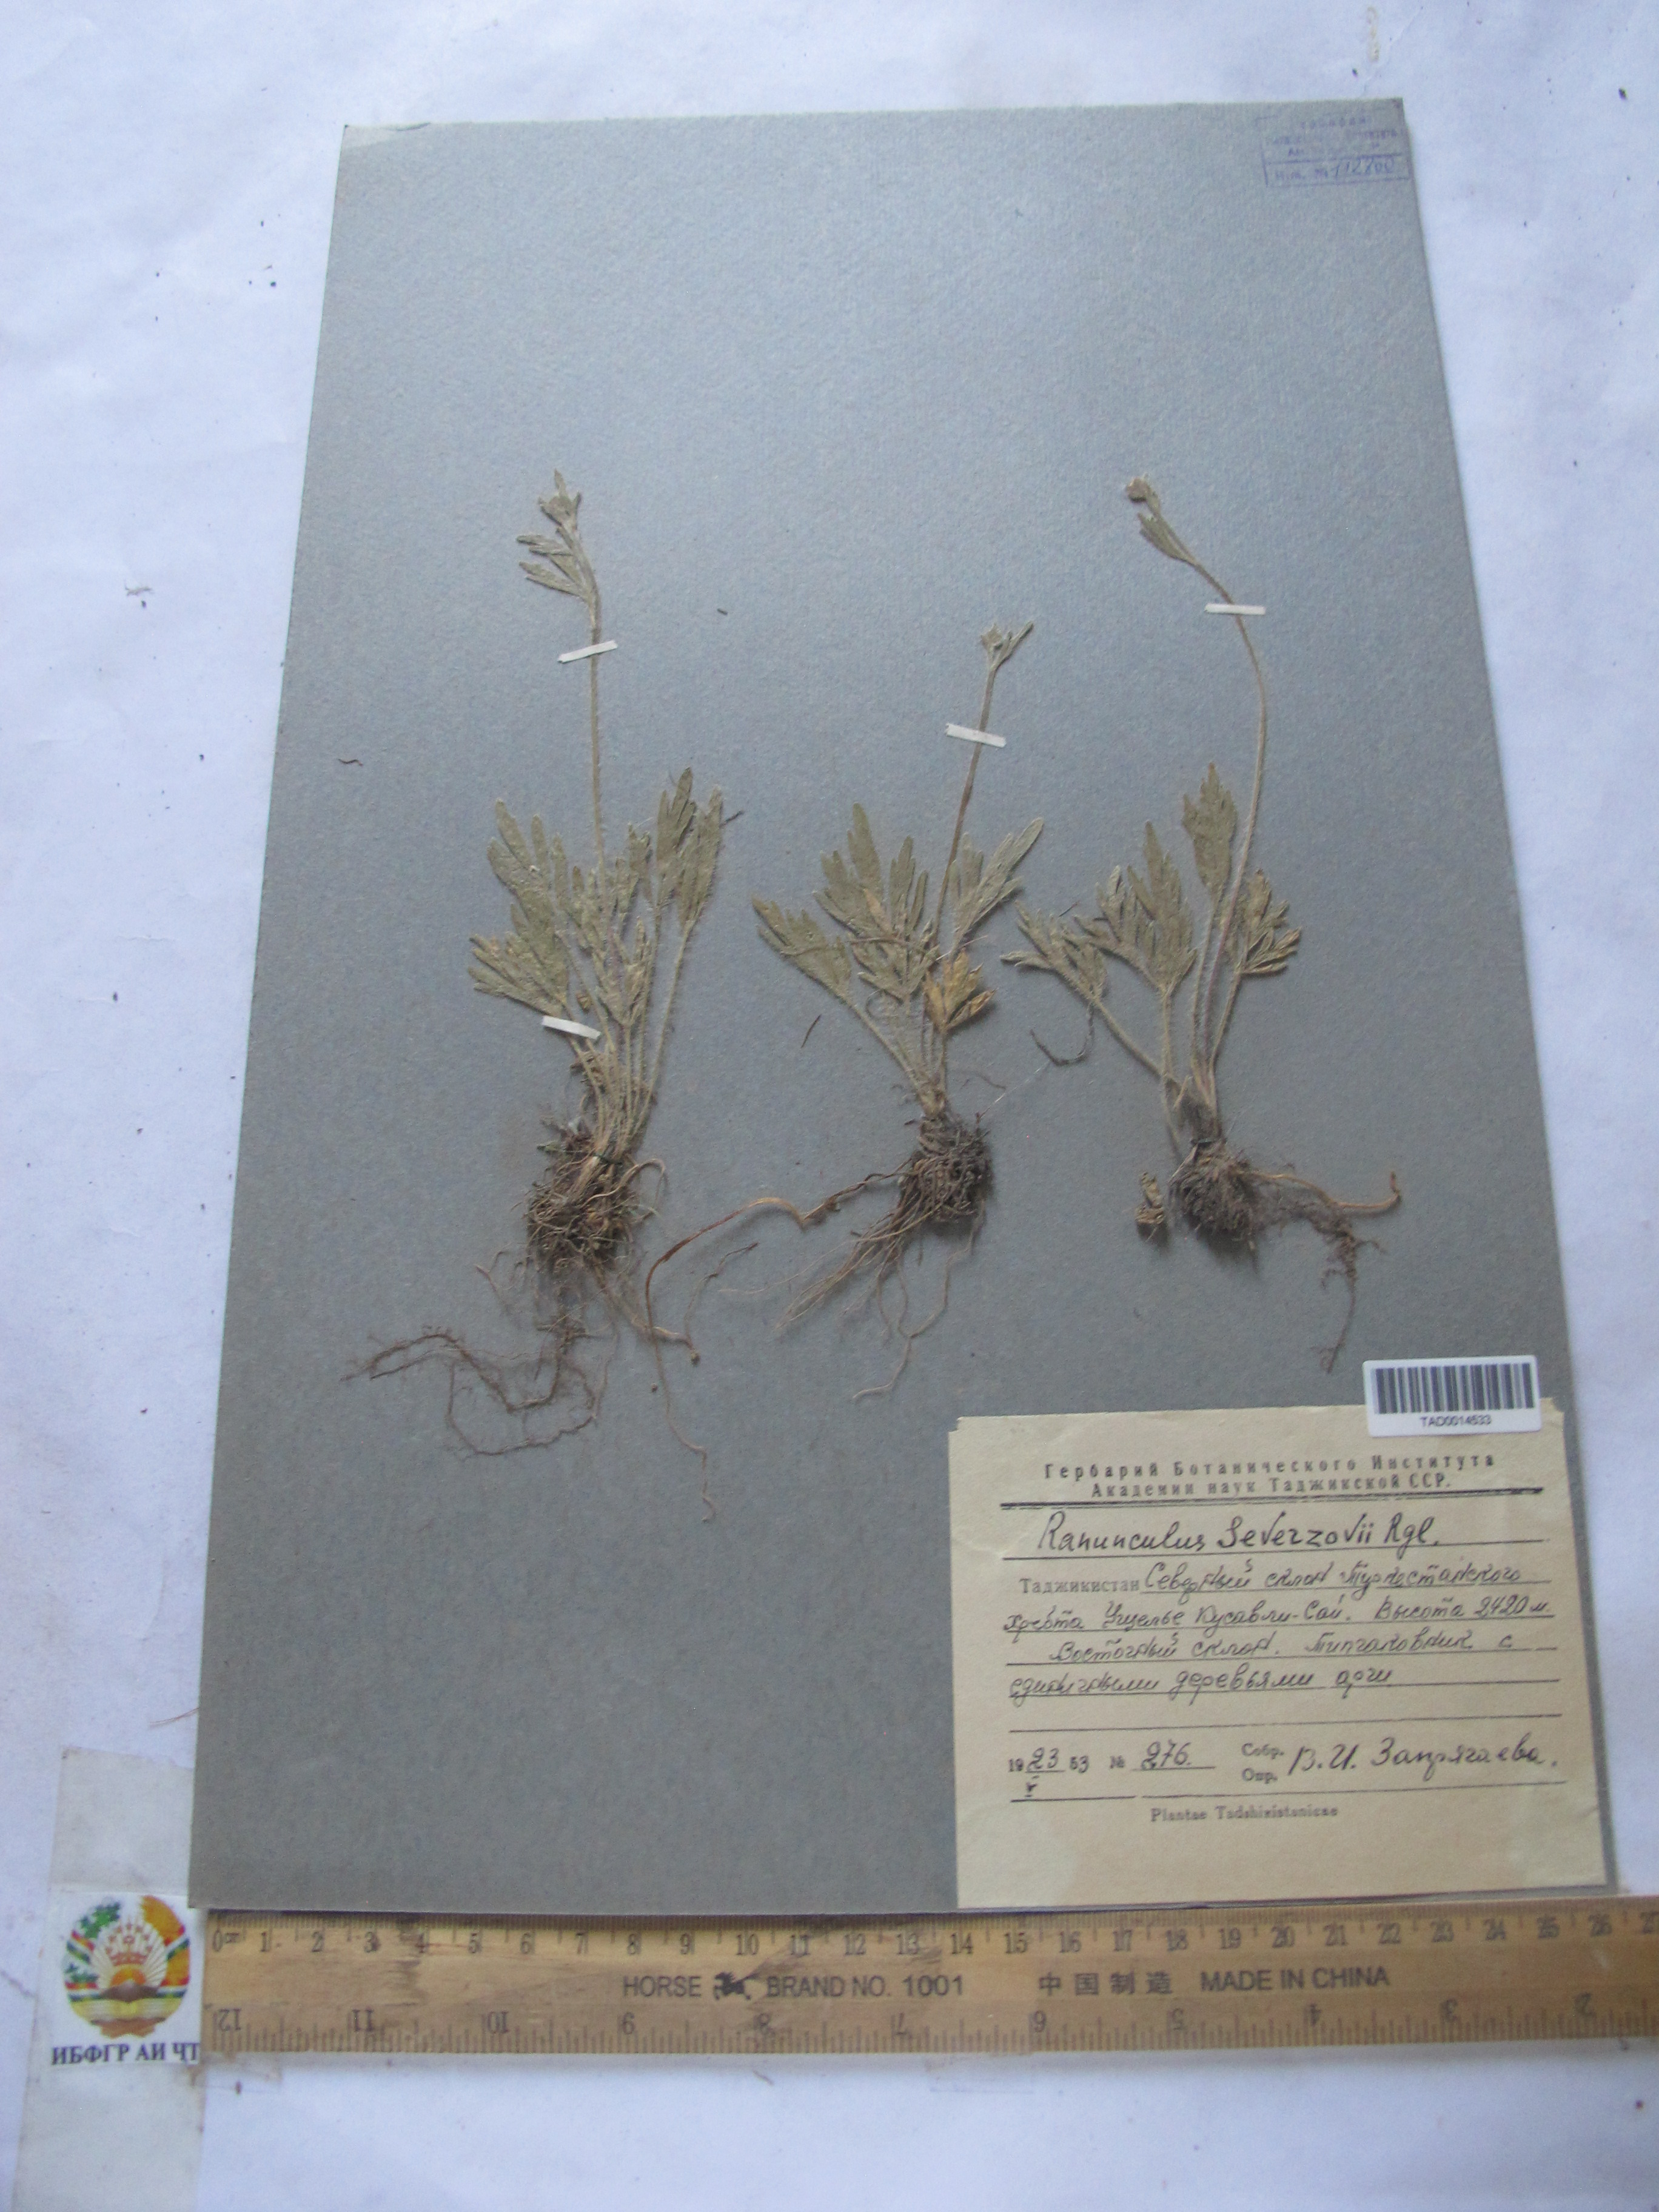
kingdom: Plantae
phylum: Tracheophyta
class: Magnoliopsida
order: Ranunculales
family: Ranunculaceae
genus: Ranunculus
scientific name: Ranunculus
